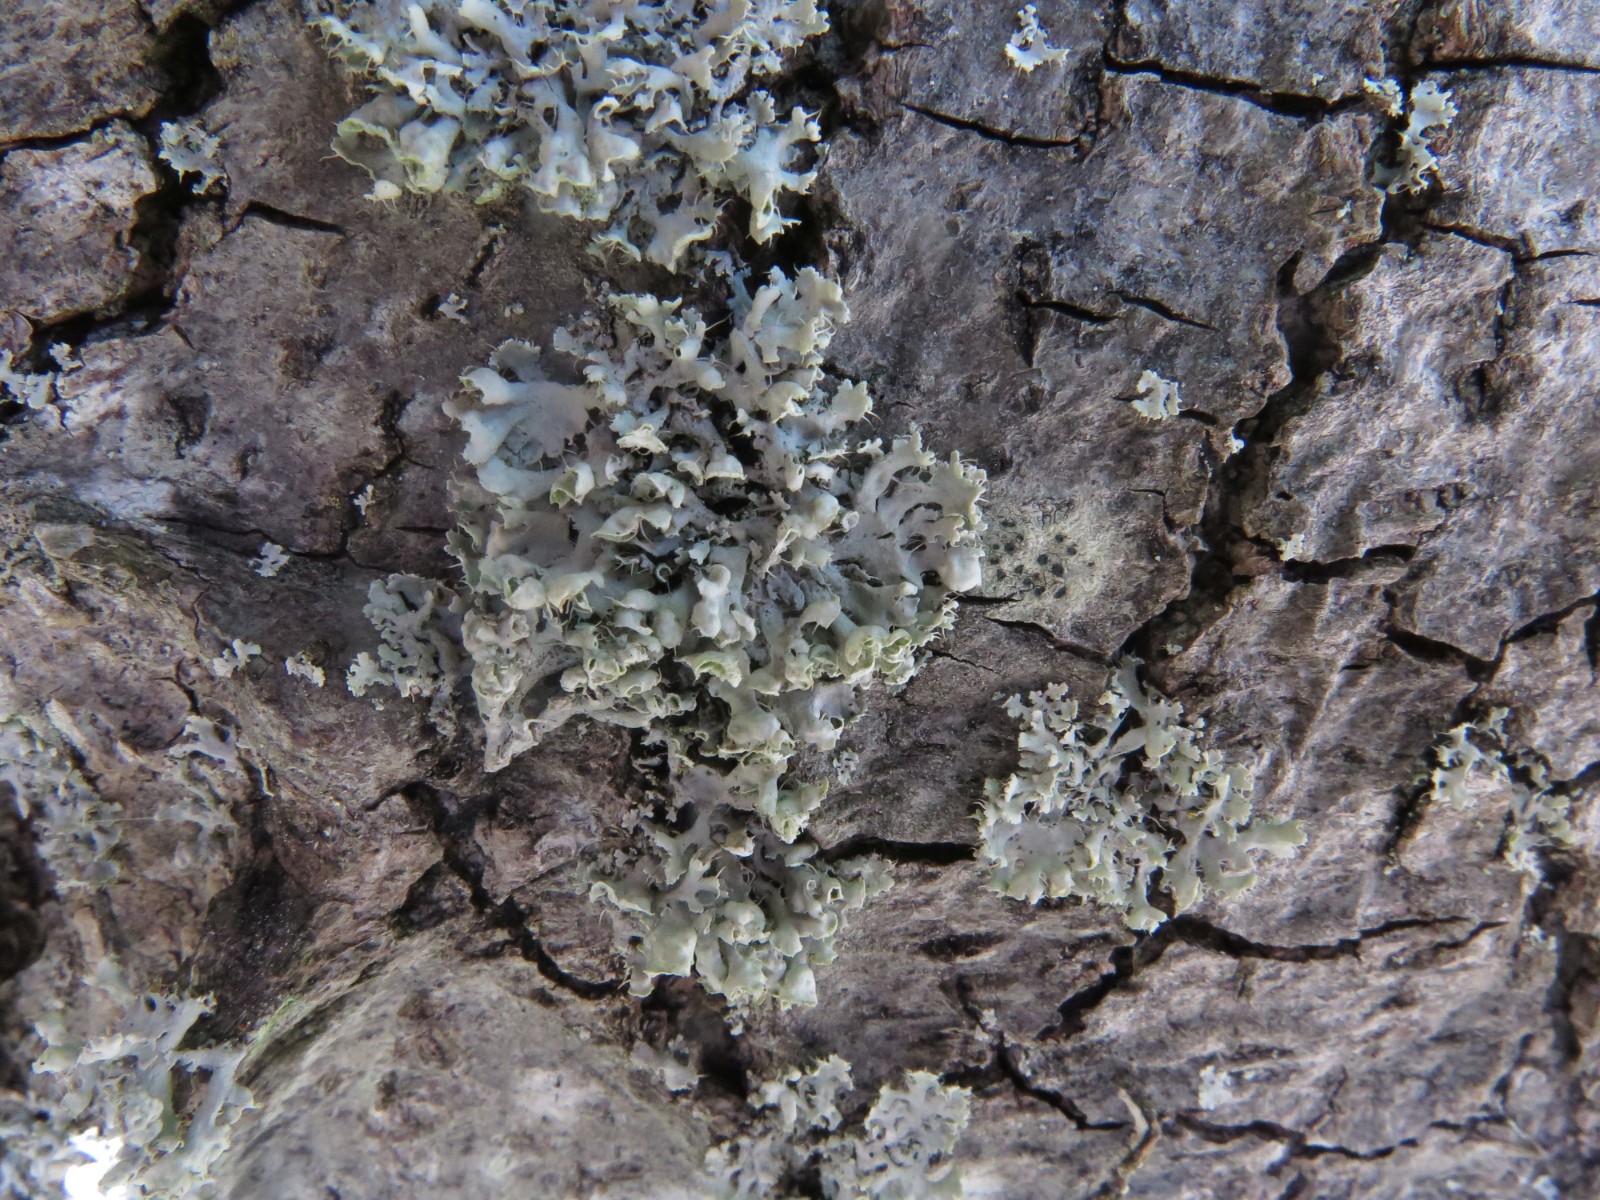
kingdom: Fungi
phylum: Ascomycota
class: Lecanoromycetes
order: Caliciales
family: Physciaceae
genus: Physcia
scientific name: Physcia adscendens
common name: hætte-rosetlav
